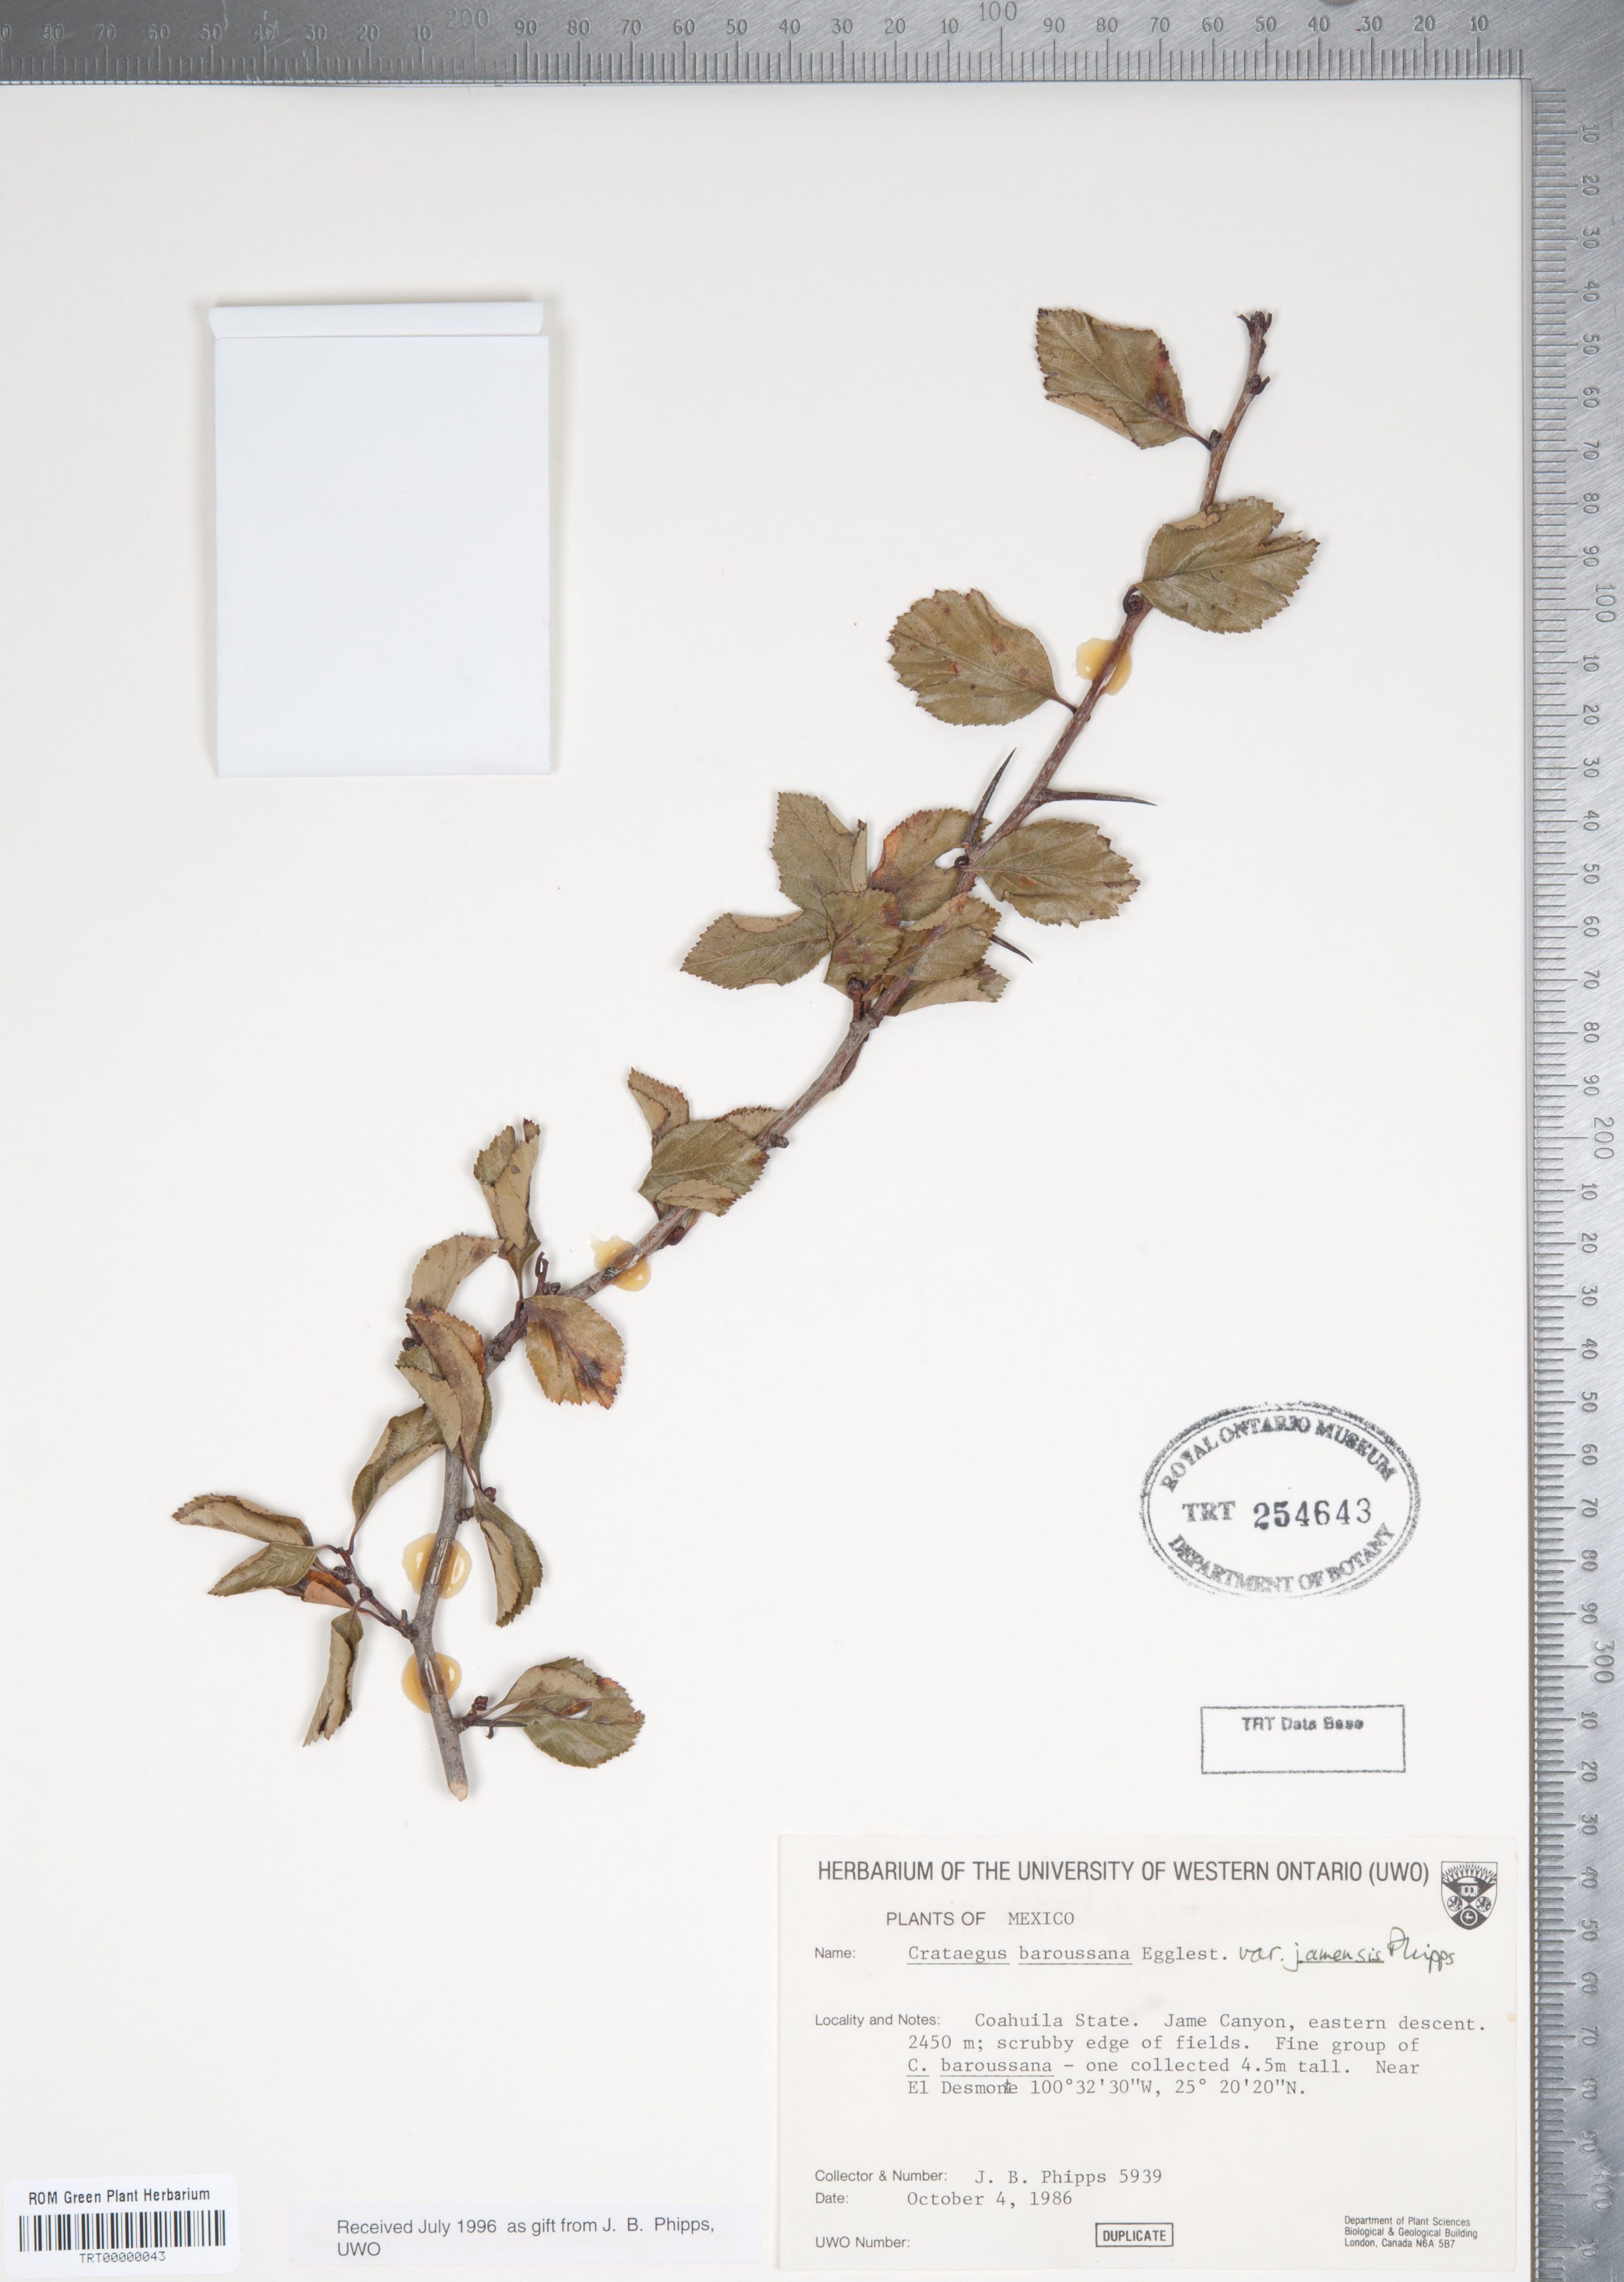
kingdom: Plantae
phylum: Tracheophyta
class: Magnoliopsida
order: Rosales
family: Rosaceae
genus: Crataegus
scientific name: Crataegus baroussana
